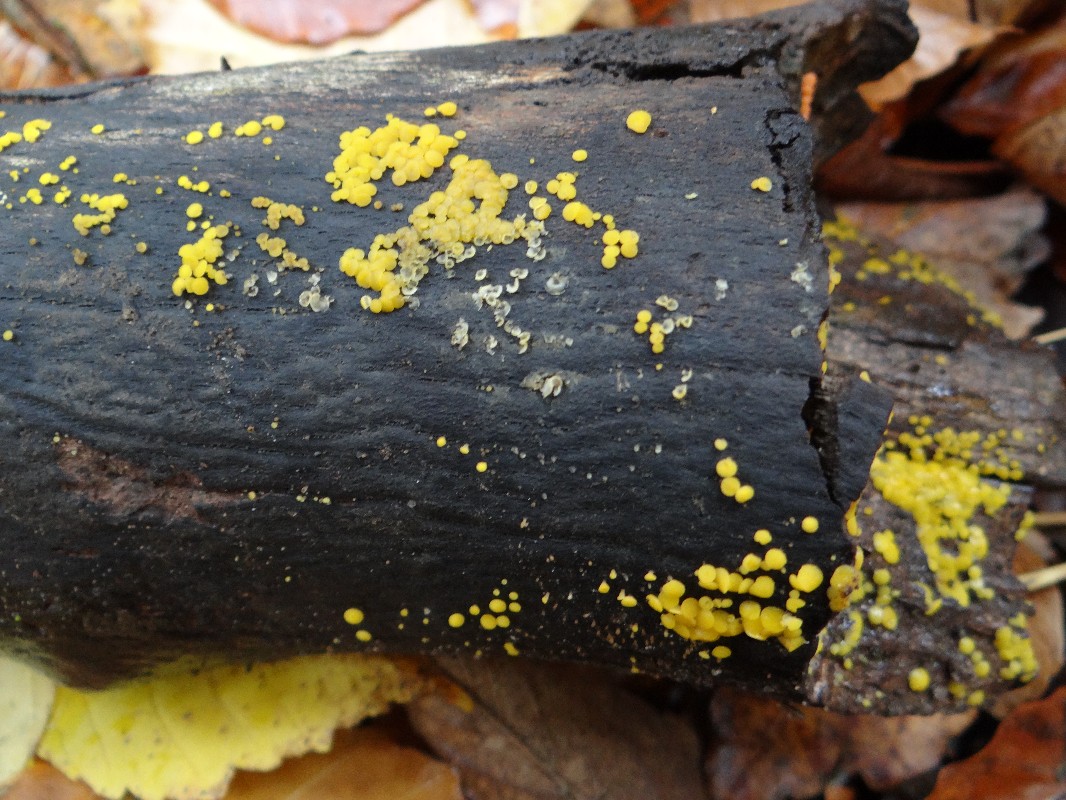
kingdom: Fungi
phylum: Ascomycota
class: Leotiomycetes
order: Helotiales
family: Pezizellaceae
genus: Calycina
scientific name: Calycina citrina
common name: almindelig gulskive
